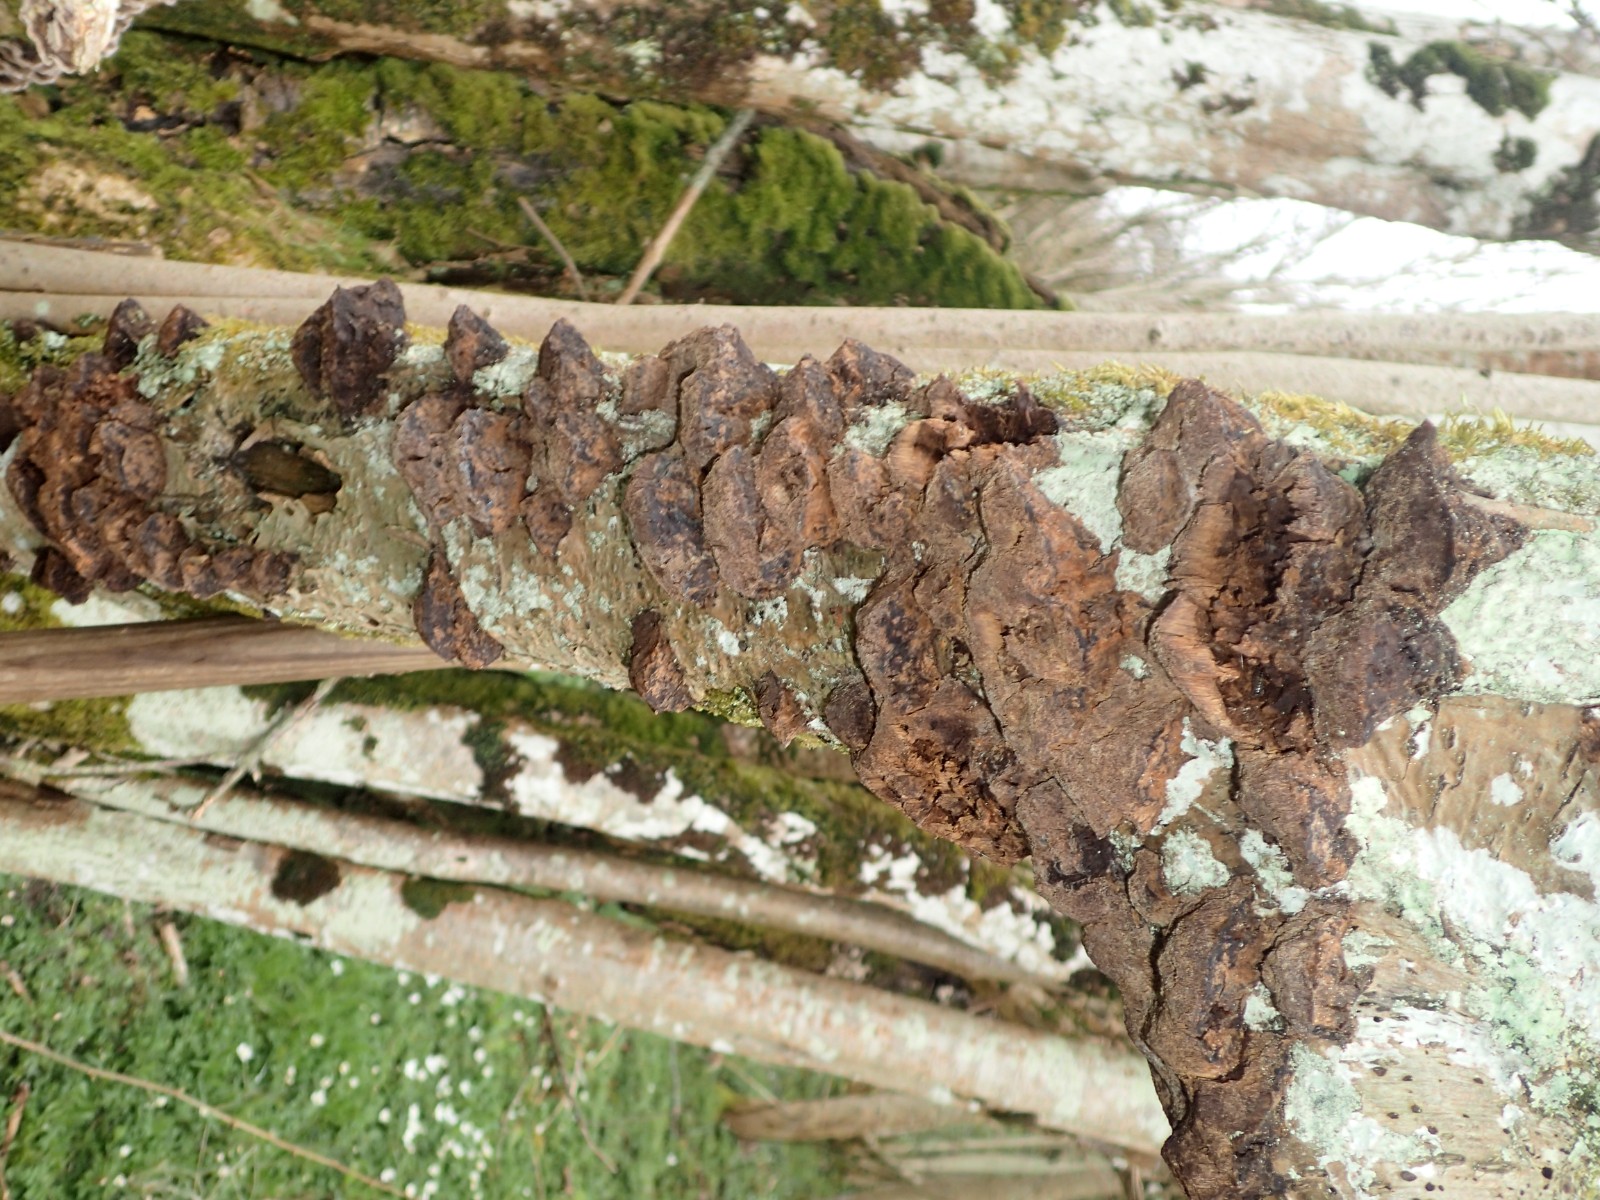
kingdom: Fungi
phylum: Basidiomycota
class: Agaricomycetes
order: Hymenochaetales
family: Hymenochaetaceae
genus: Xanthoporia
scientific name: Xanthoporia radiata
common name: elle-spejlporesvamp
